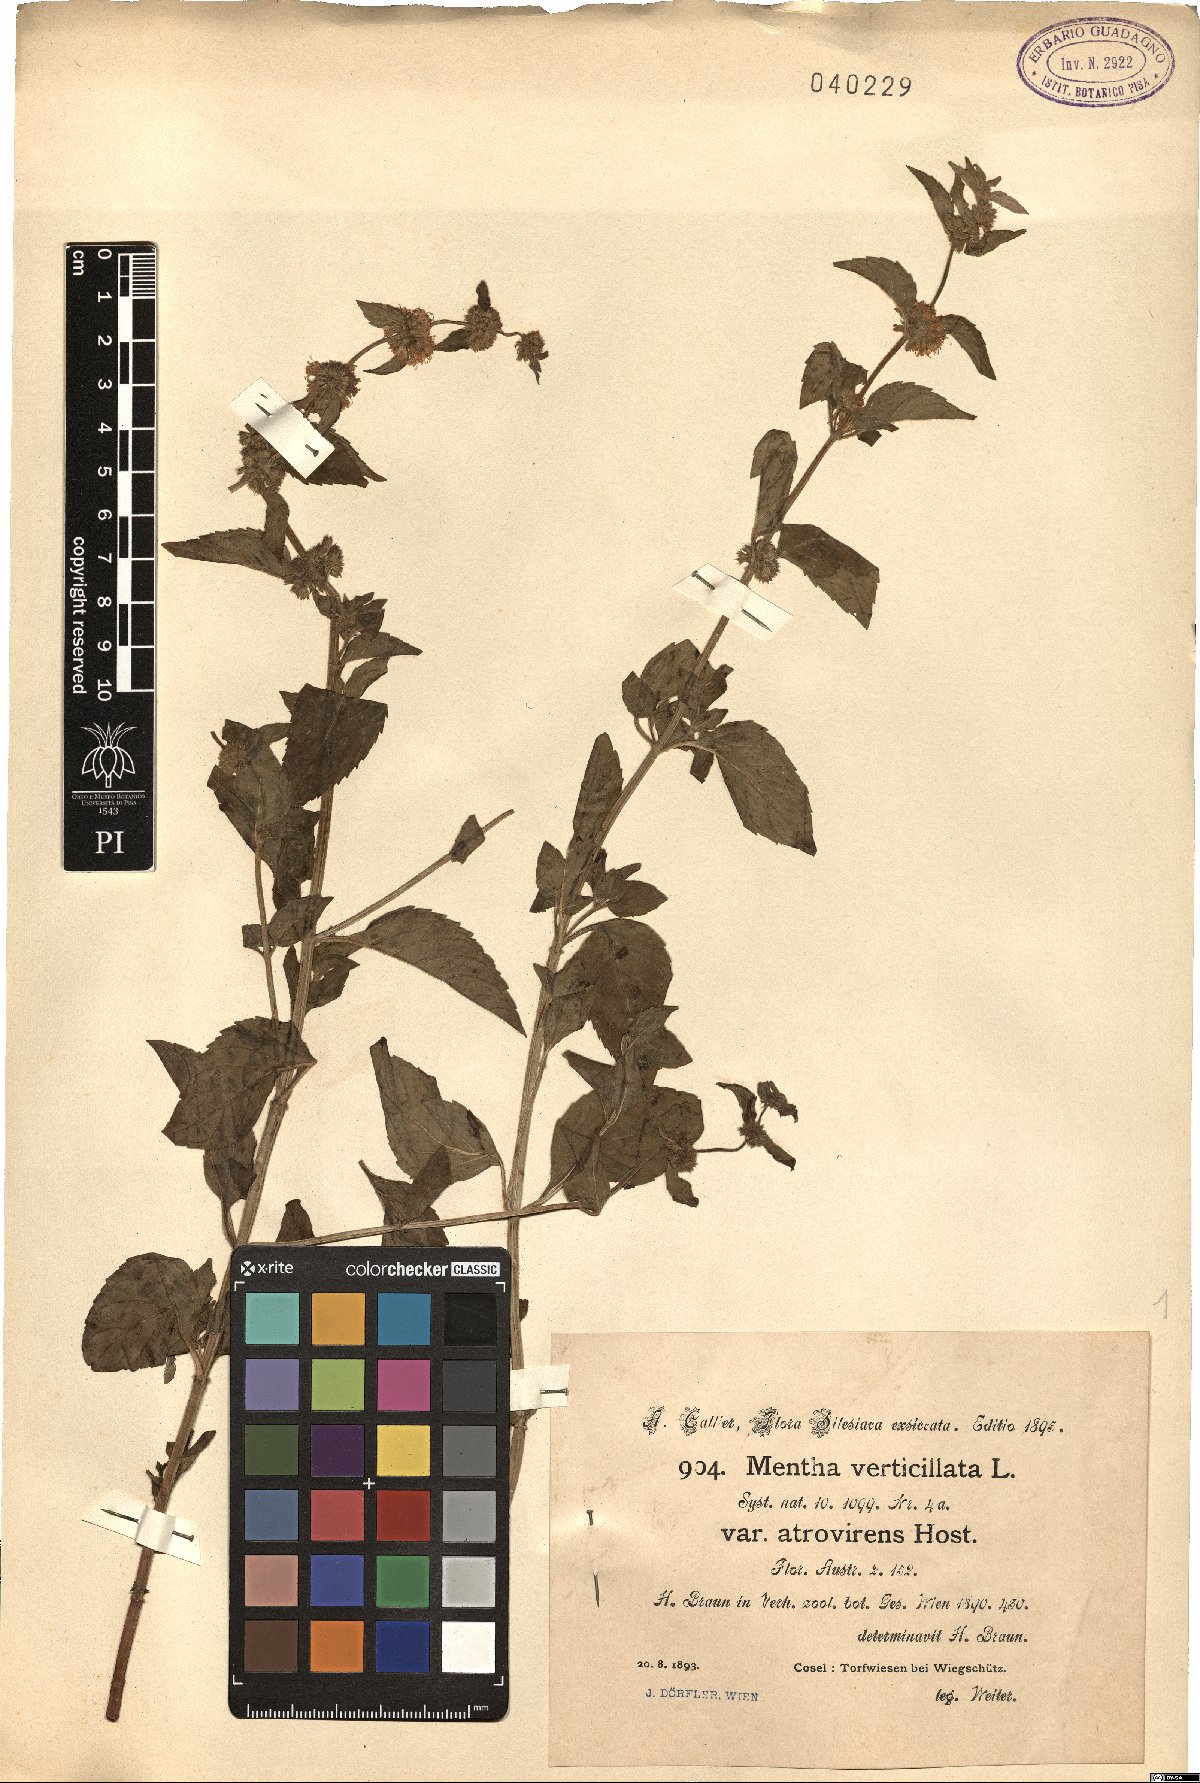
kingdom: Plantae
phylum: Tracheophyta
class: Magnoliopsida
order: Lamiales
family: Lamiaceae
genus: Mentha
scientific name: Mentha verticillata
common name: Mint
